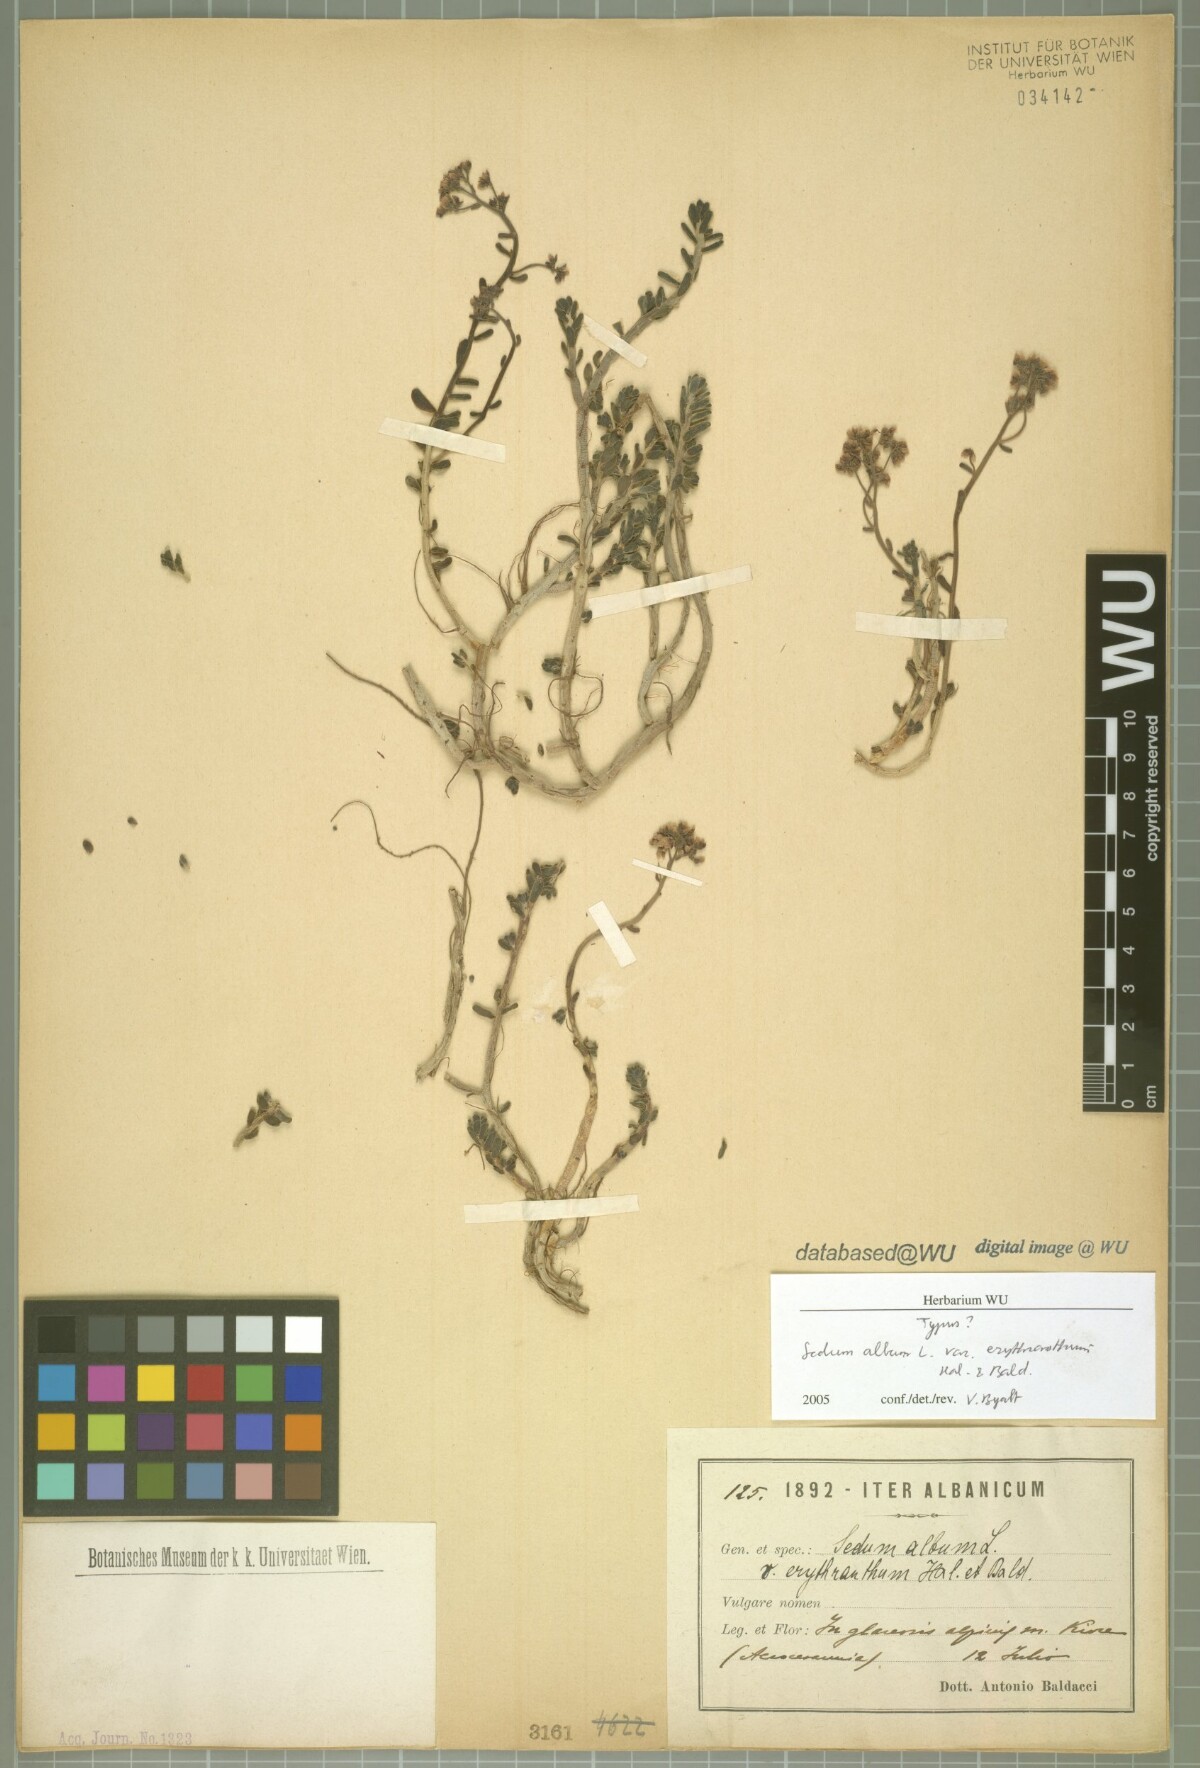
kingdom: Plantae
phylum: Tracheophyta
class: Magnoliopsida
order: Saxifragales
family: Crassulaceae
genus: Sedum
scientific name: Sedum album
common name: White stonecrop
